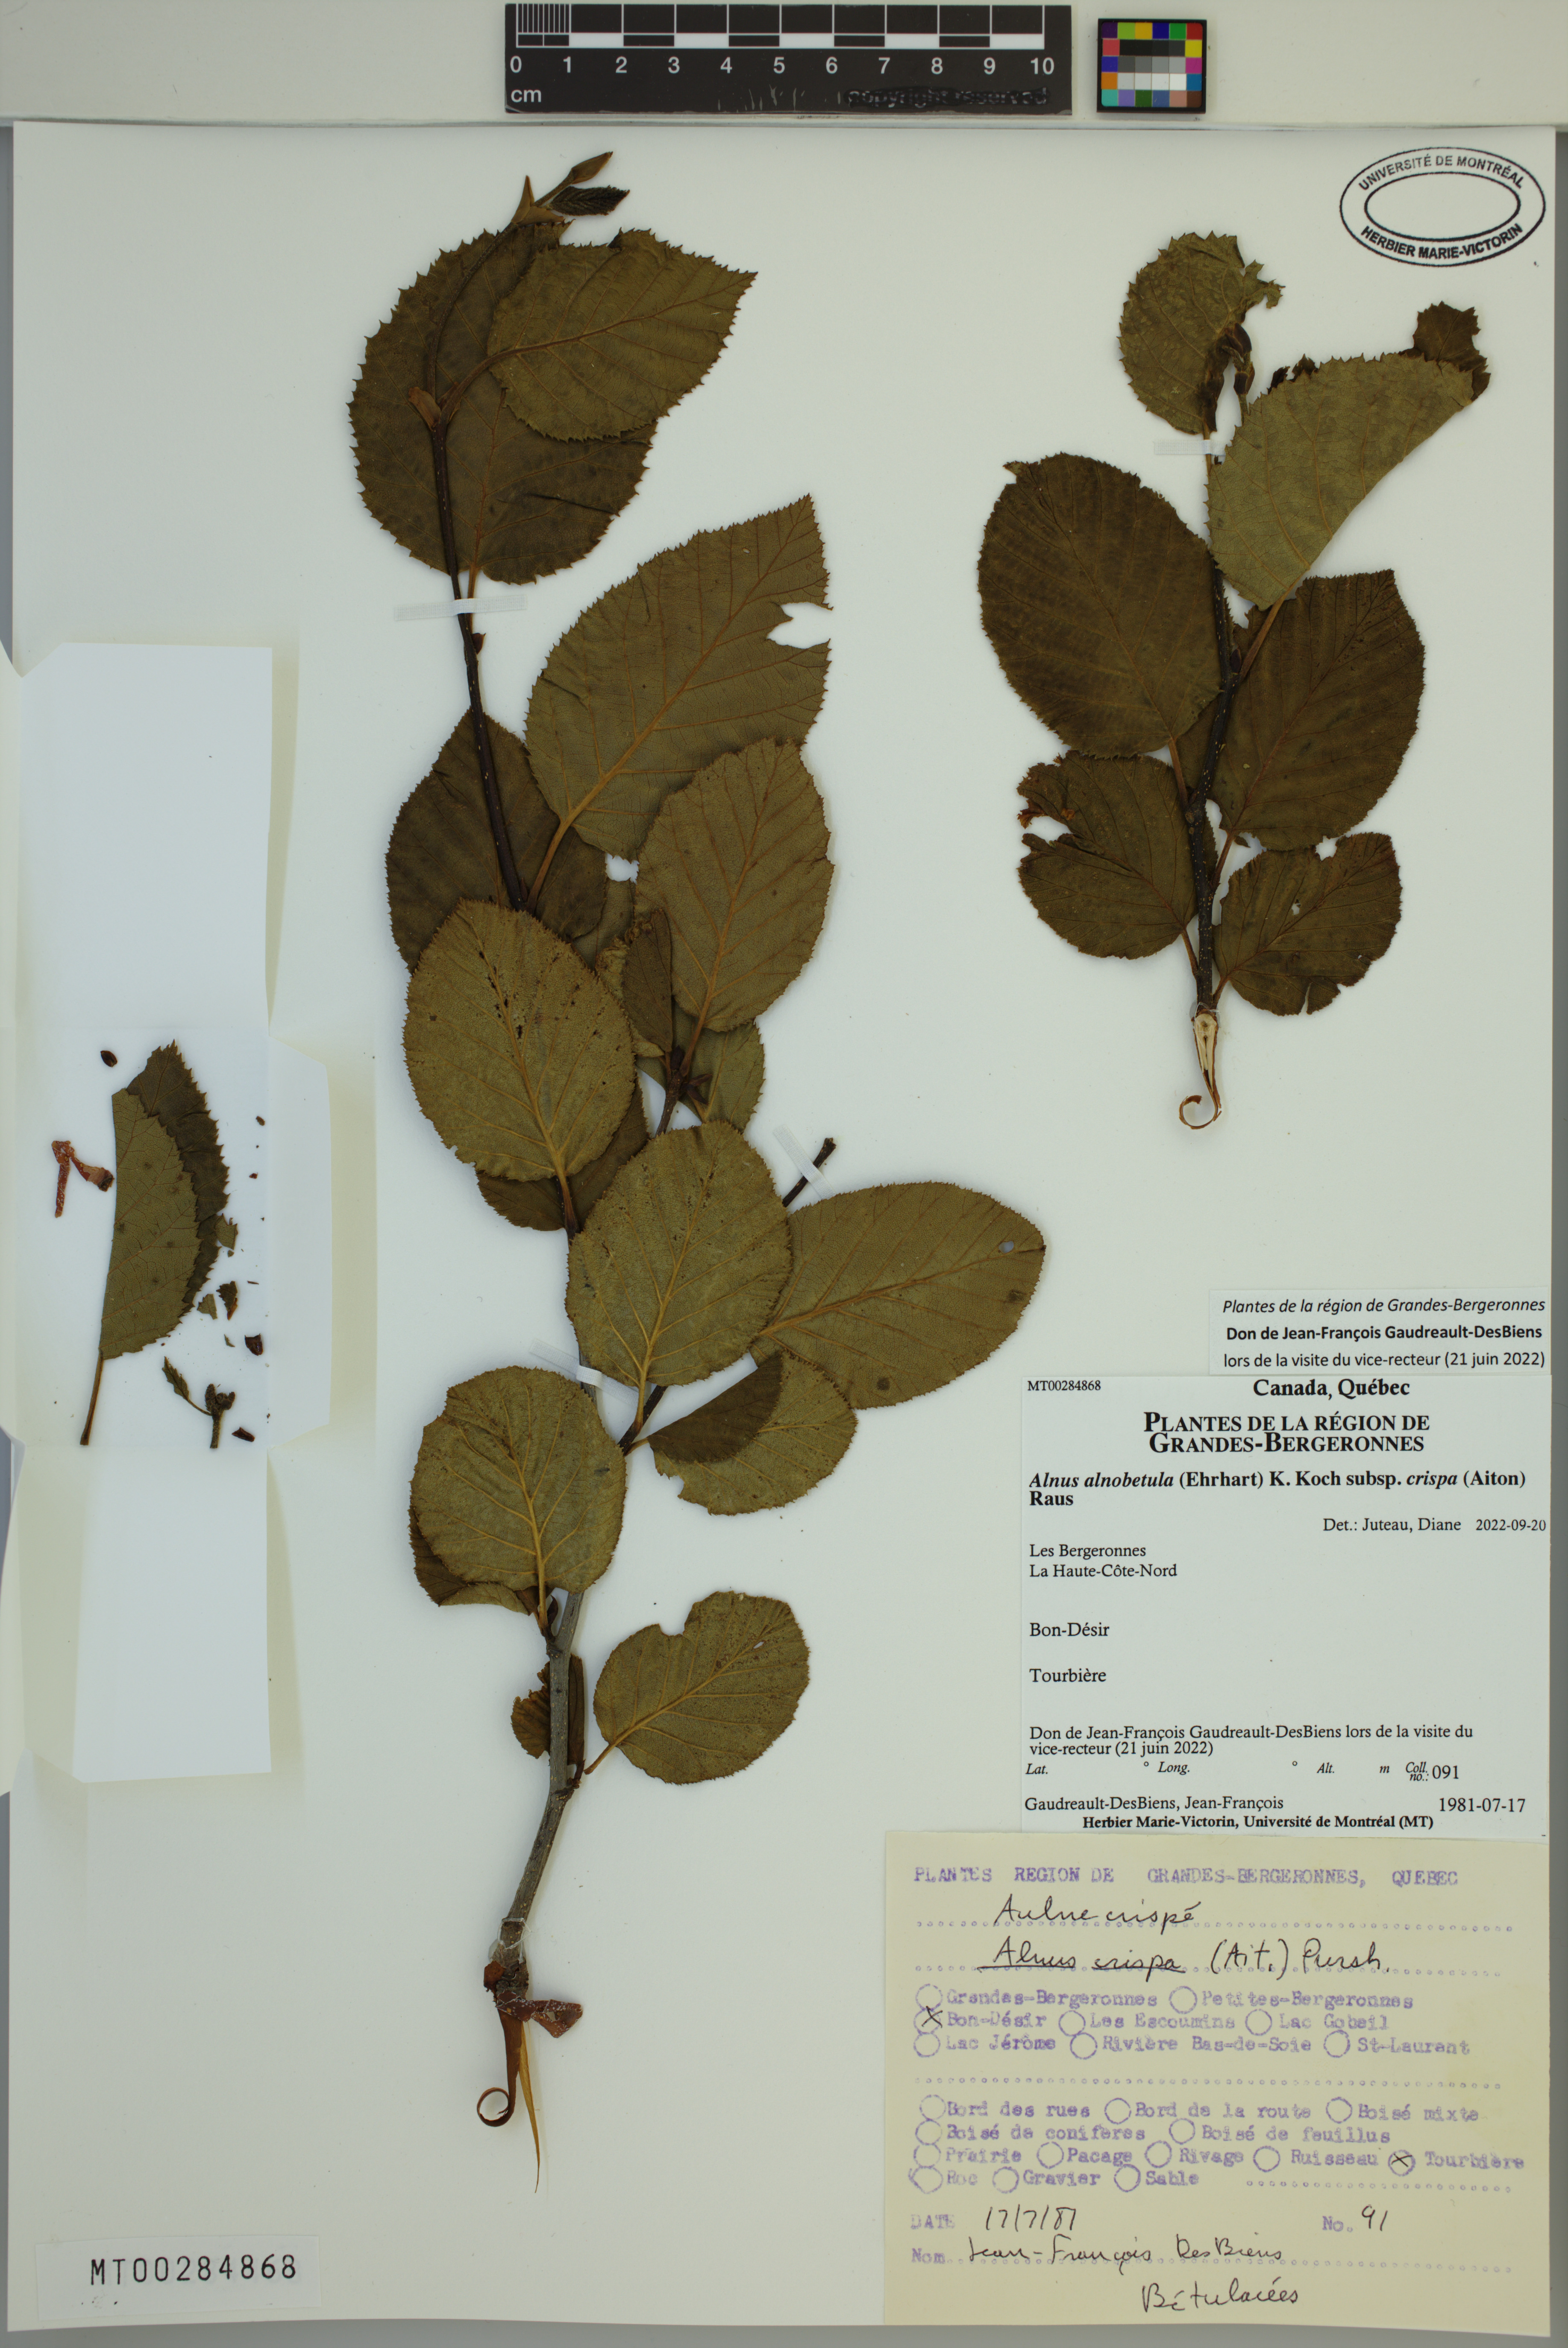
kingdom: Plantae
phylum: Tracheophyta
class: Magnoliopsida
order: Fagales
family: Betulaceae
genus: Alnus
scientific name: Alnus alnobetula
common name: Green alder
